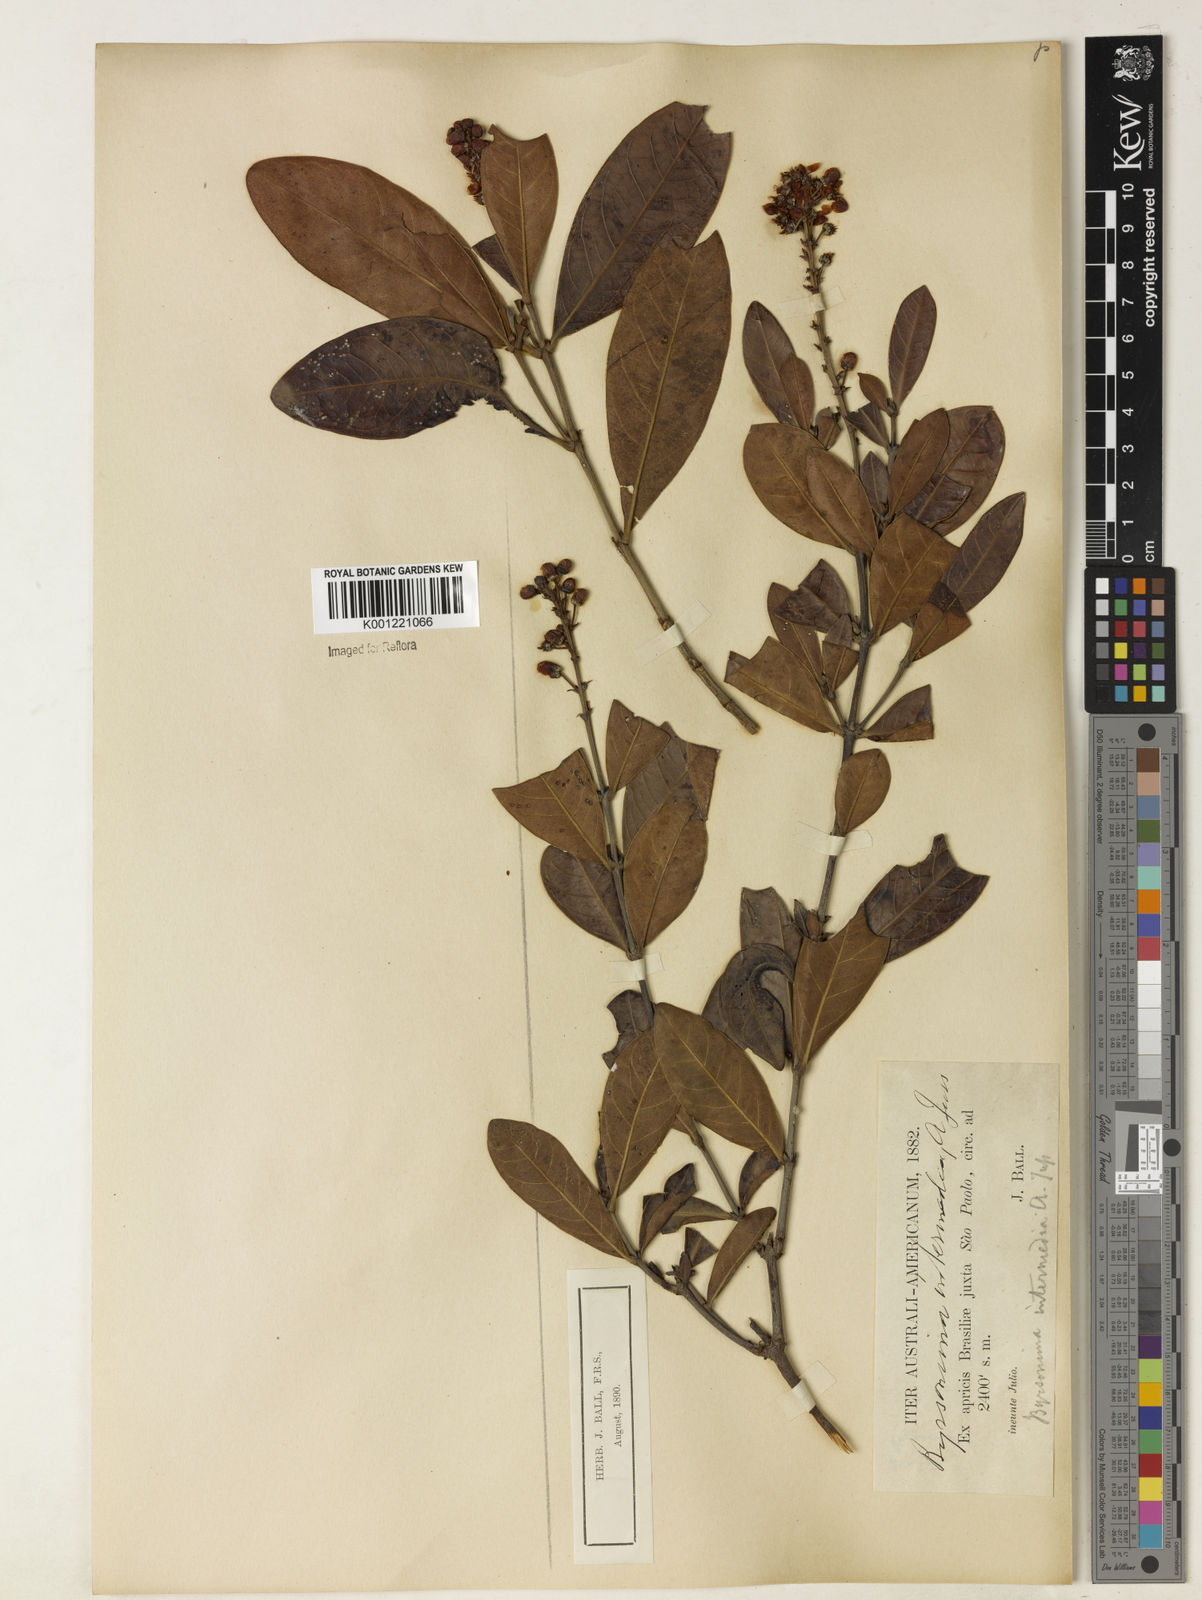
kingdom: Plantae
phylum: Tracheophyta
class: Magnoliopsida
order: Malpighiales
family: Malpighiaceae
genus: Byrsonima
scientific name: Byrsonima intermedia
